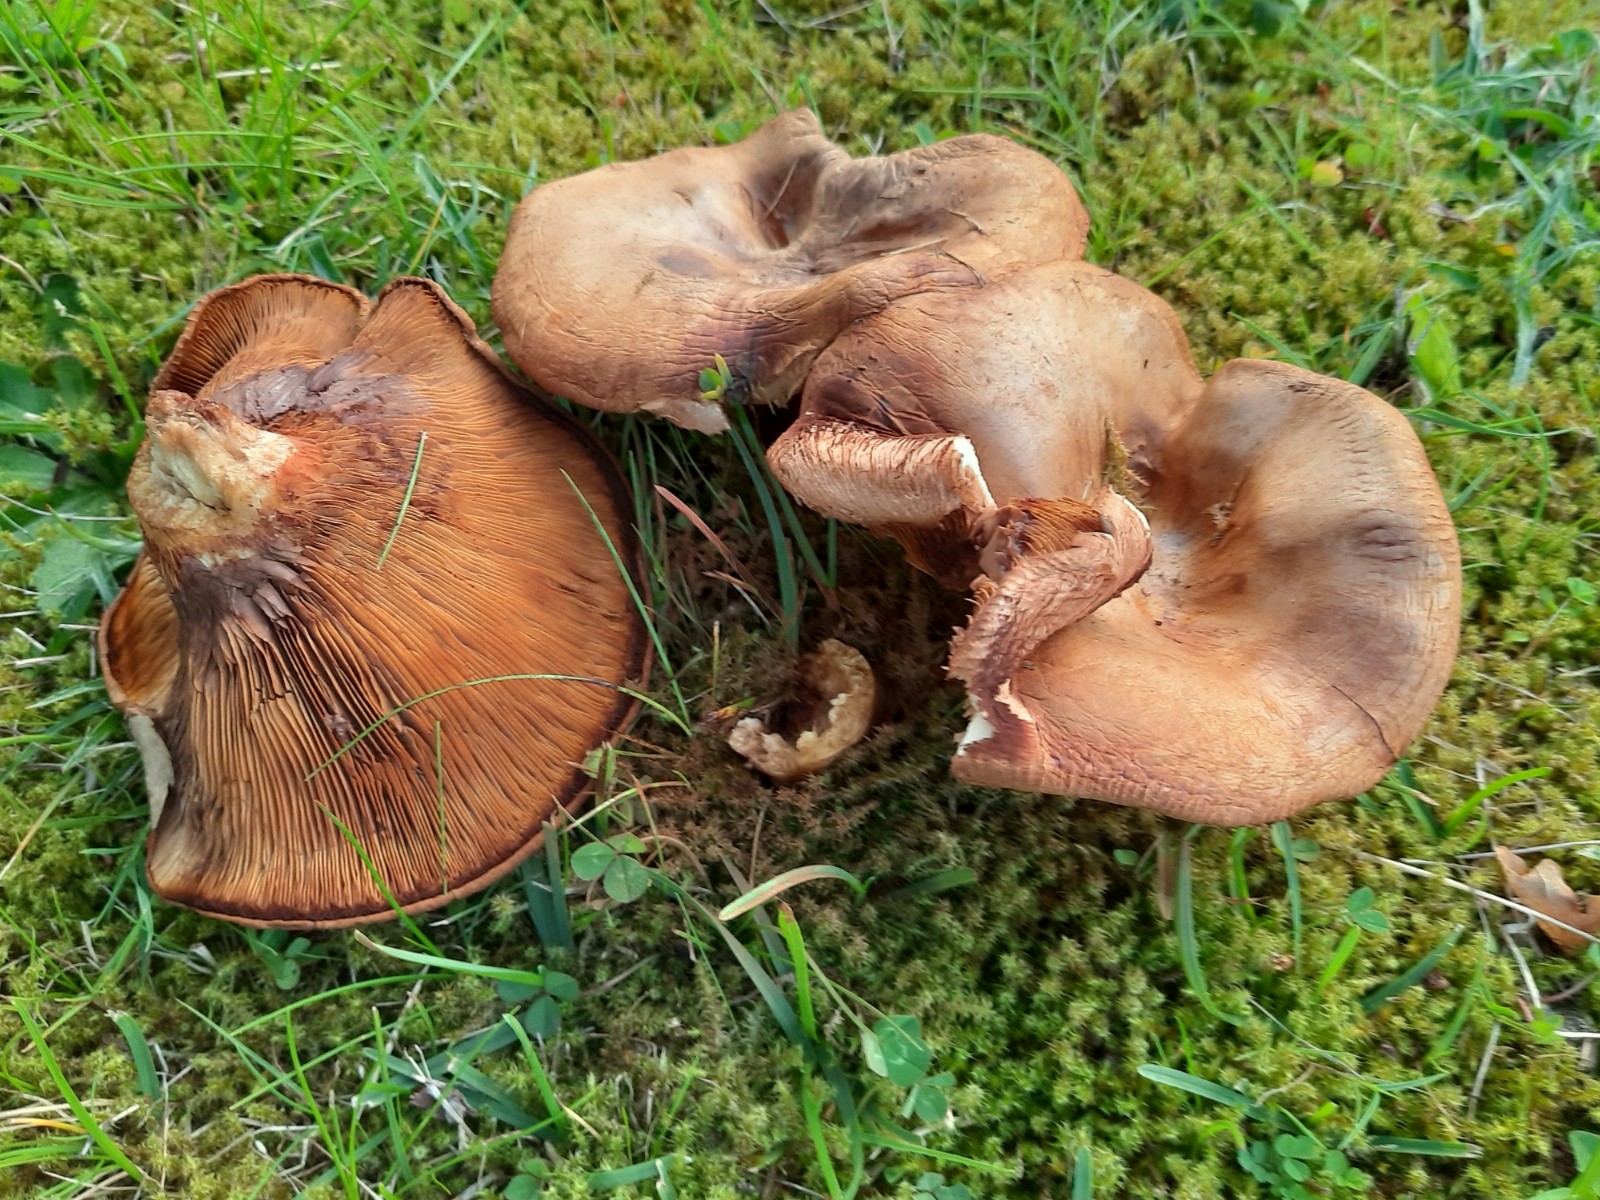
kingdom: Fungi
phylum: Basidiomycota
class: Agaricomycetes
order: Boletales
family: Paxillaceae
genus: Paxillus
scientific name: Paxillus obscurisporus
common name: mahognisporet netbladhat
